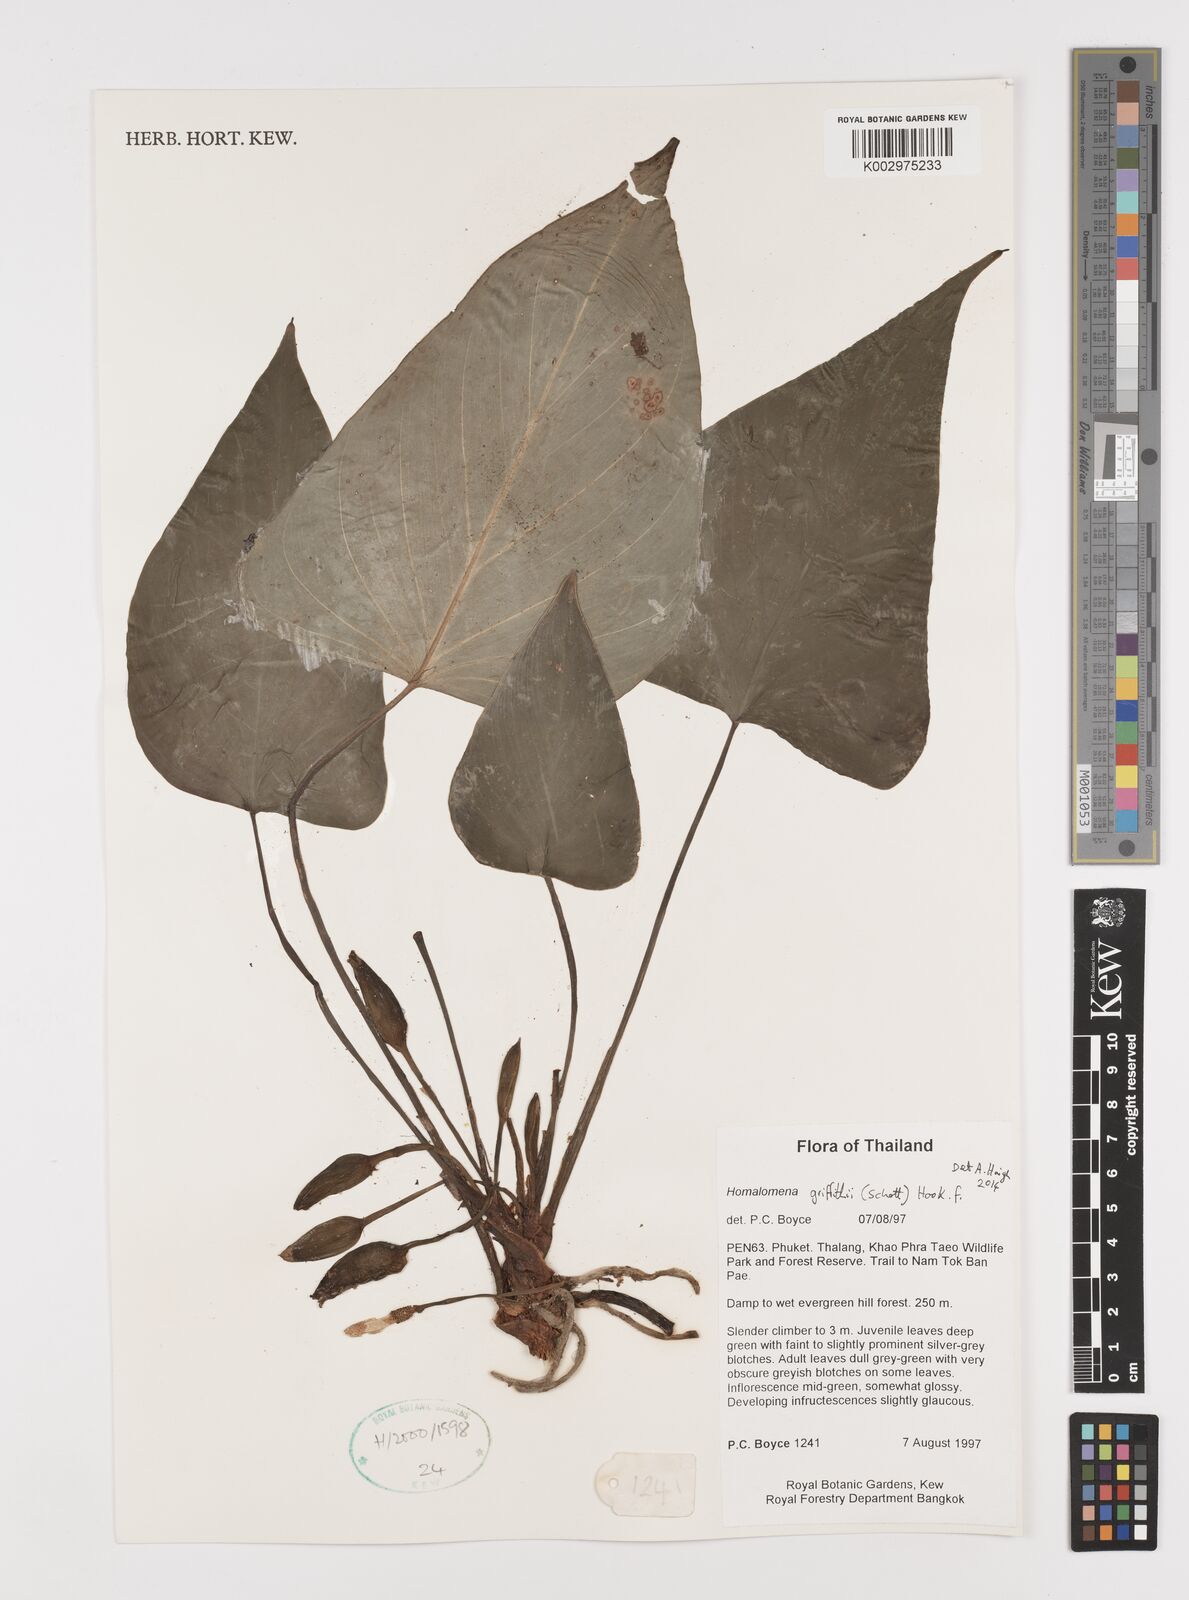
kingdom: Plantae
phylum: Tracheophyta
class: Liliopsida
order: Alismatales
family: Araceae
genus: Homalomena
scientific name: Homalomena griffithii
